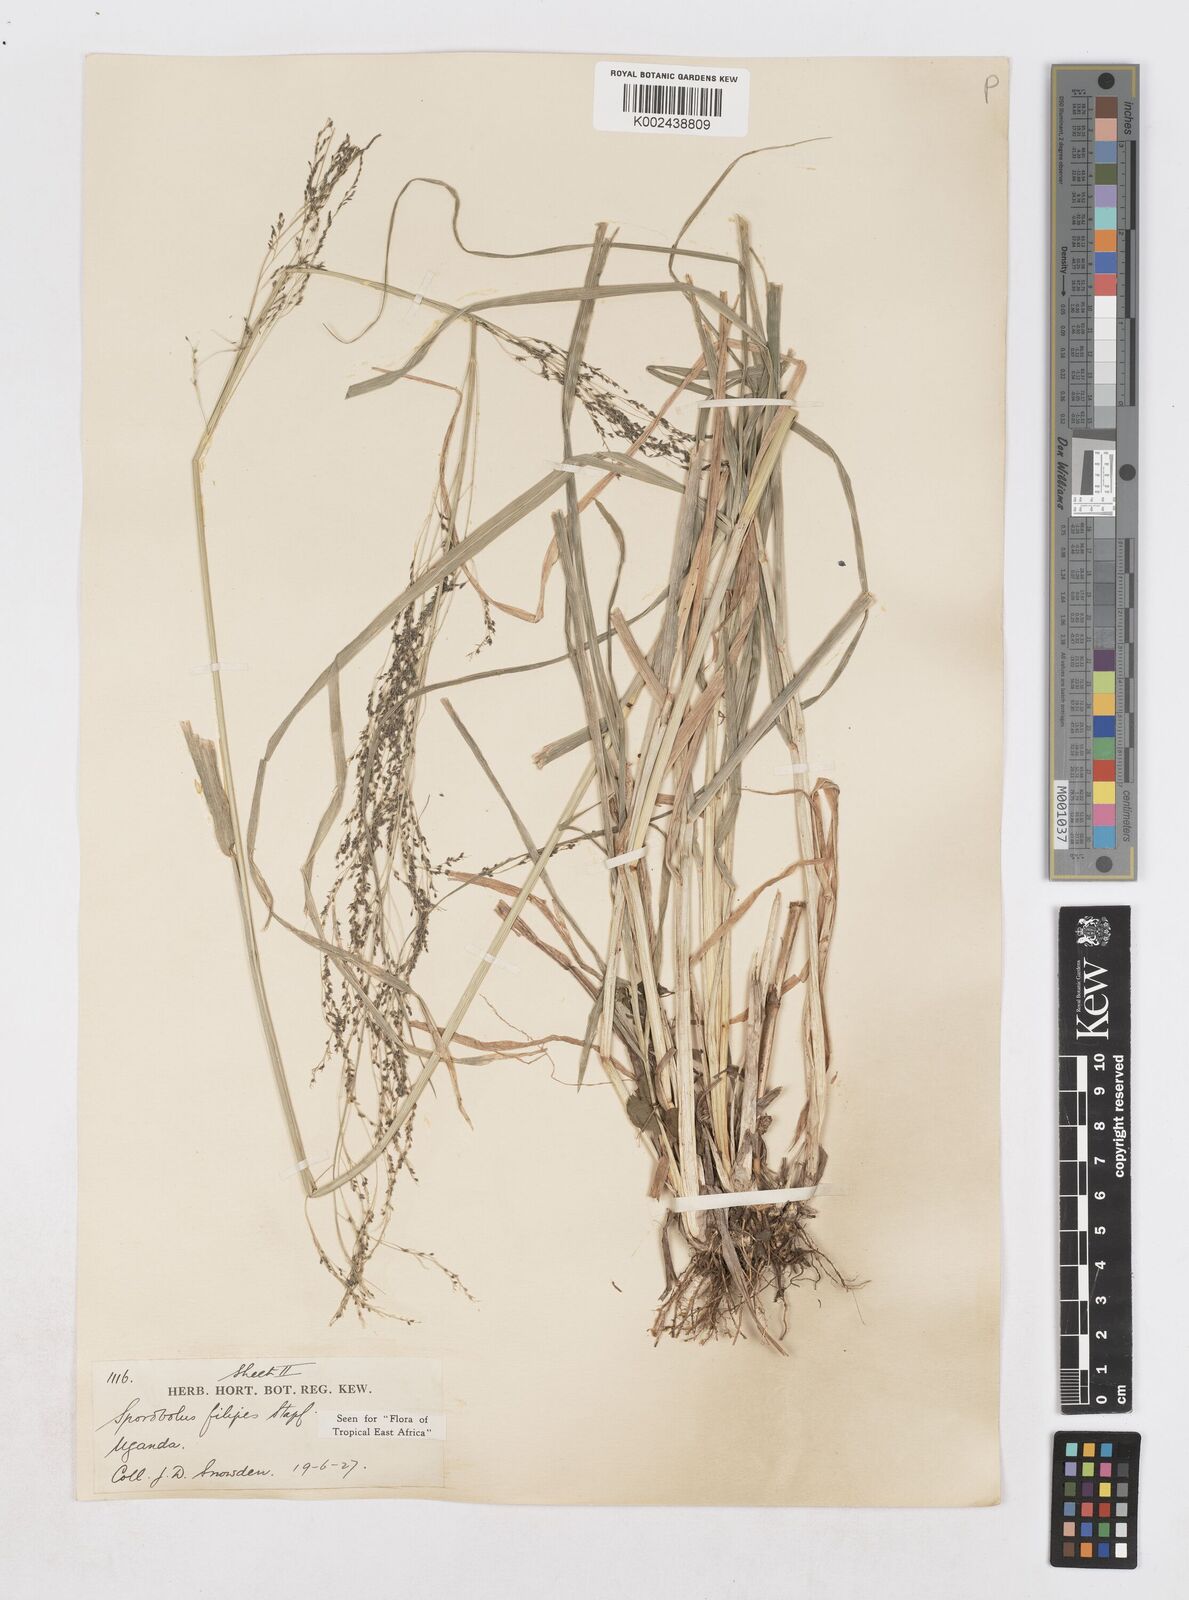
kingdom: Plantae
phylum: Tracheophyta
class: Liliopsida
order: Poales
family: Poaceae
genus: Sporobolus
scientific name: Sporobolus agrostoides
